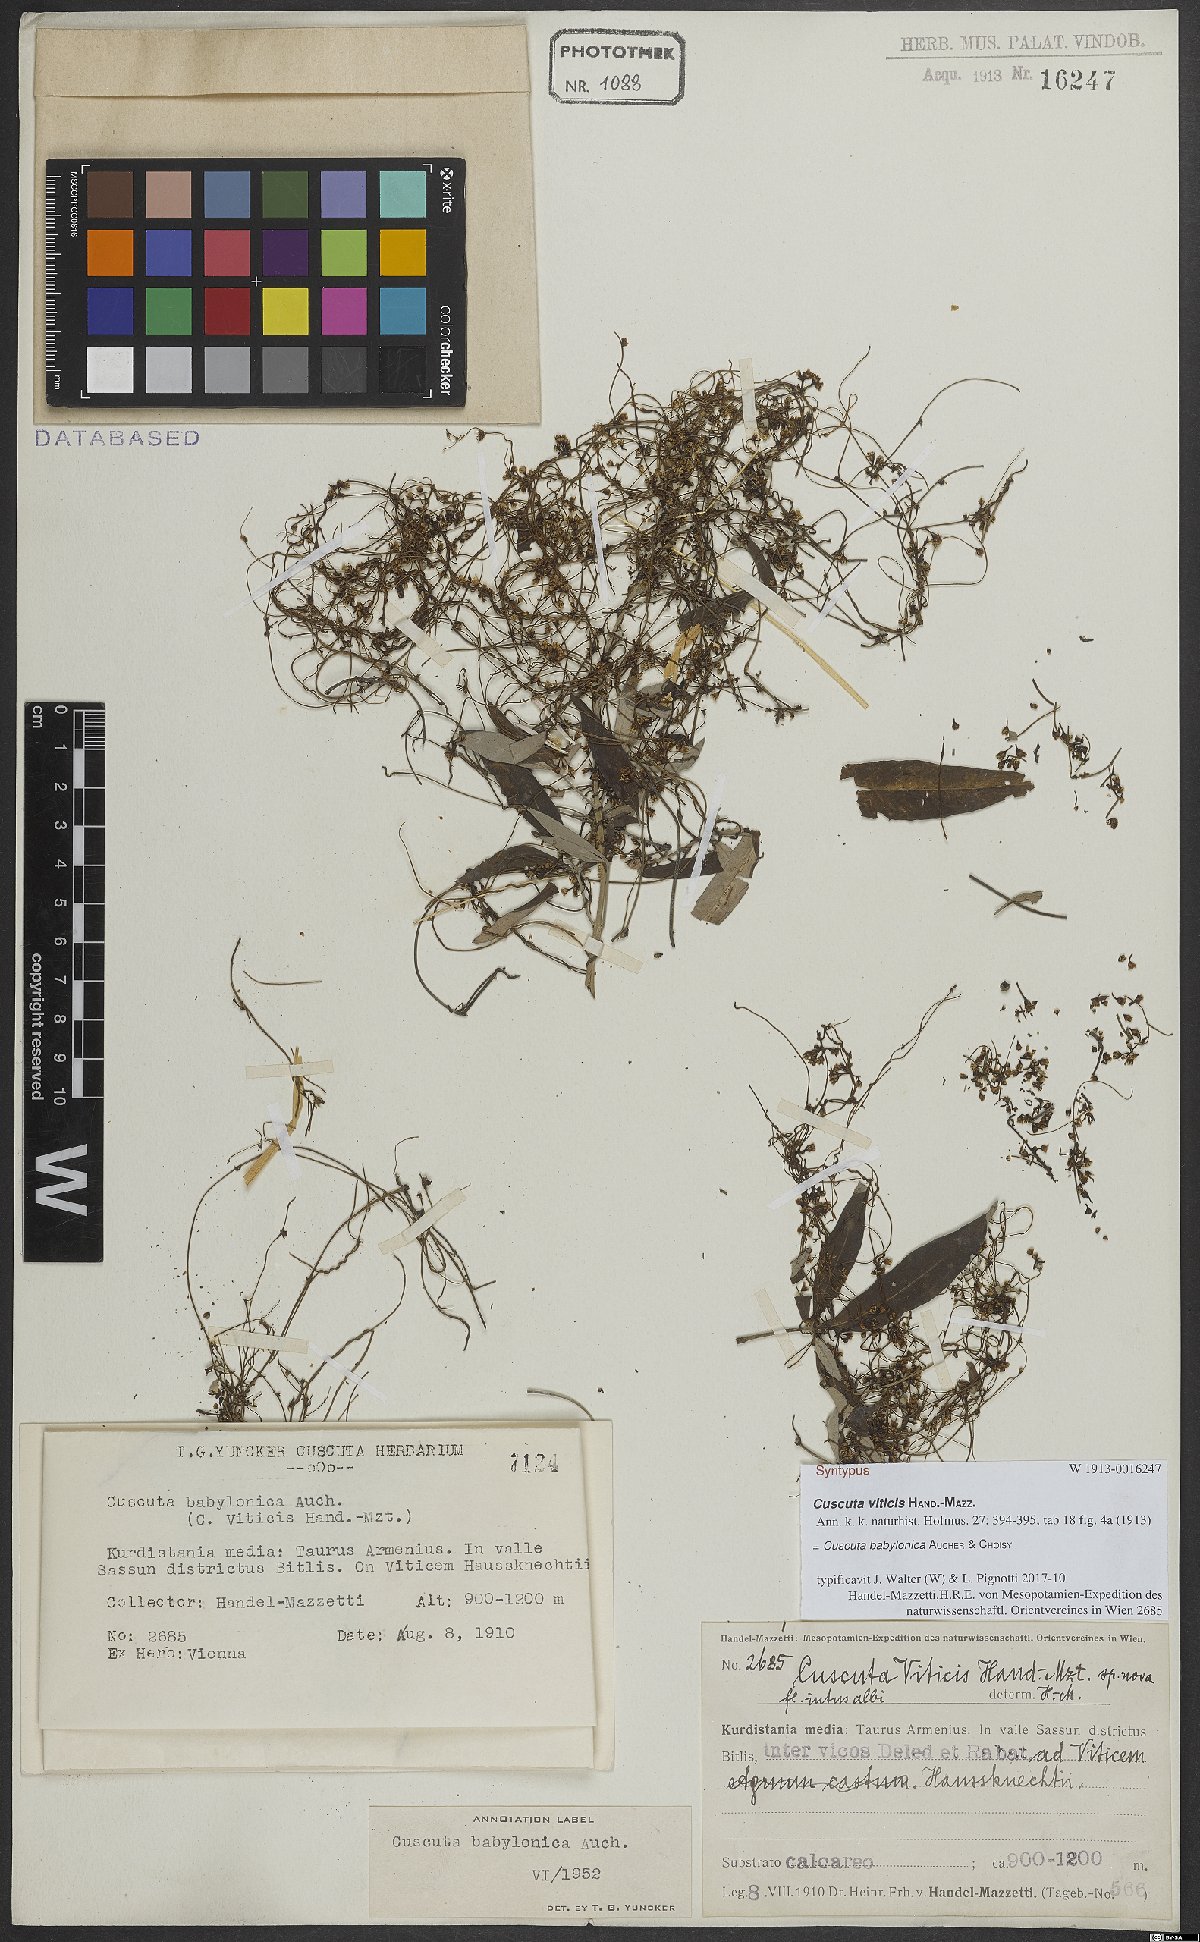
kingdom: Plantae
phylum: Tracheophyta
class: Magnoliopsida
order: Solanales
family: Convolvulaceae
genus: Cuscuta
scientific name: Cuscuta babylonica
